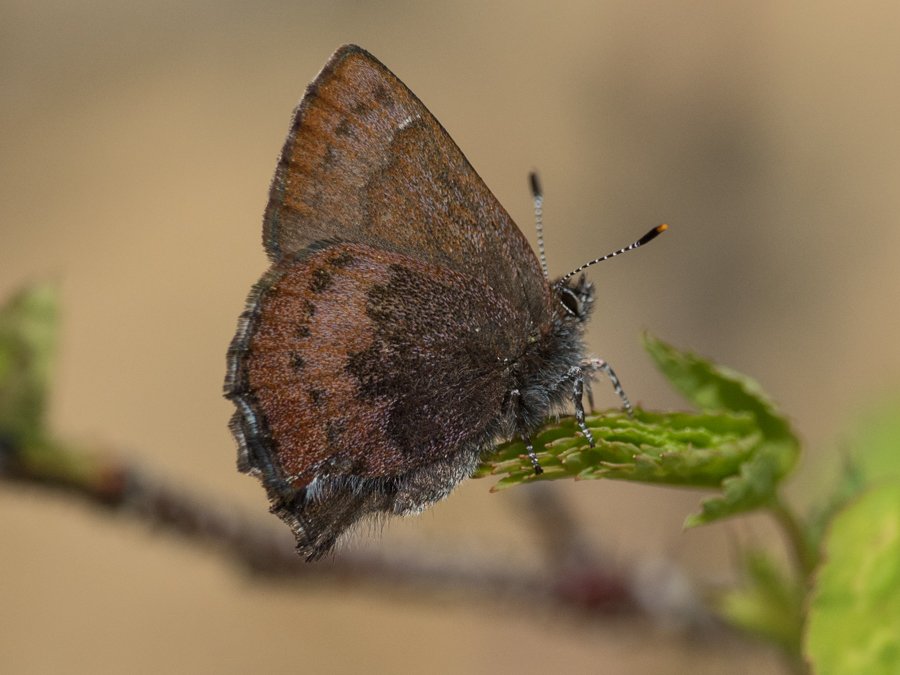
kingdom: Animalia
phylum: Arthropoda
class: Insecta
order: Lepidoptera
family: Lycaenidae
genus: Incisalia
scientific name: Incisalia irioides
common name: Brown Elfin
